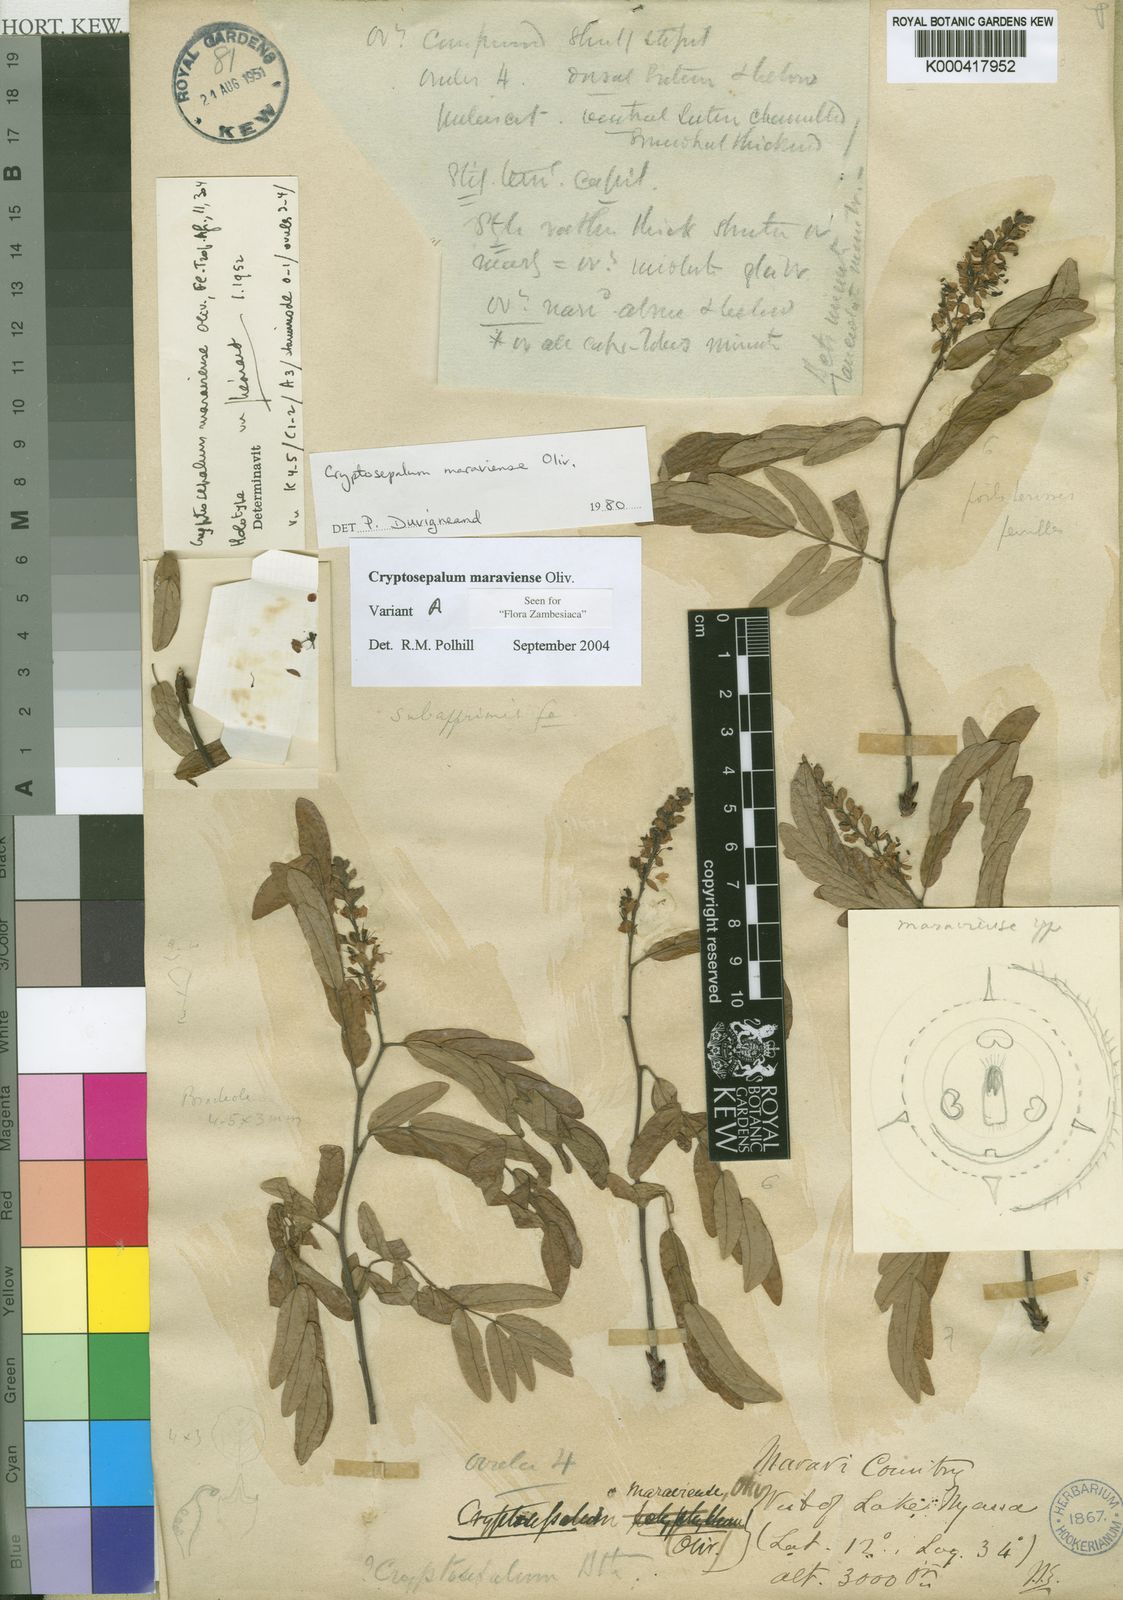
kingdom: Plantae
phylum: Tracheophyta
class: Magnoliopsida
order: Fabales
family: Fabaceae
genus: Cryptosepalum
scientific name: Cryptosepalum maraviense
